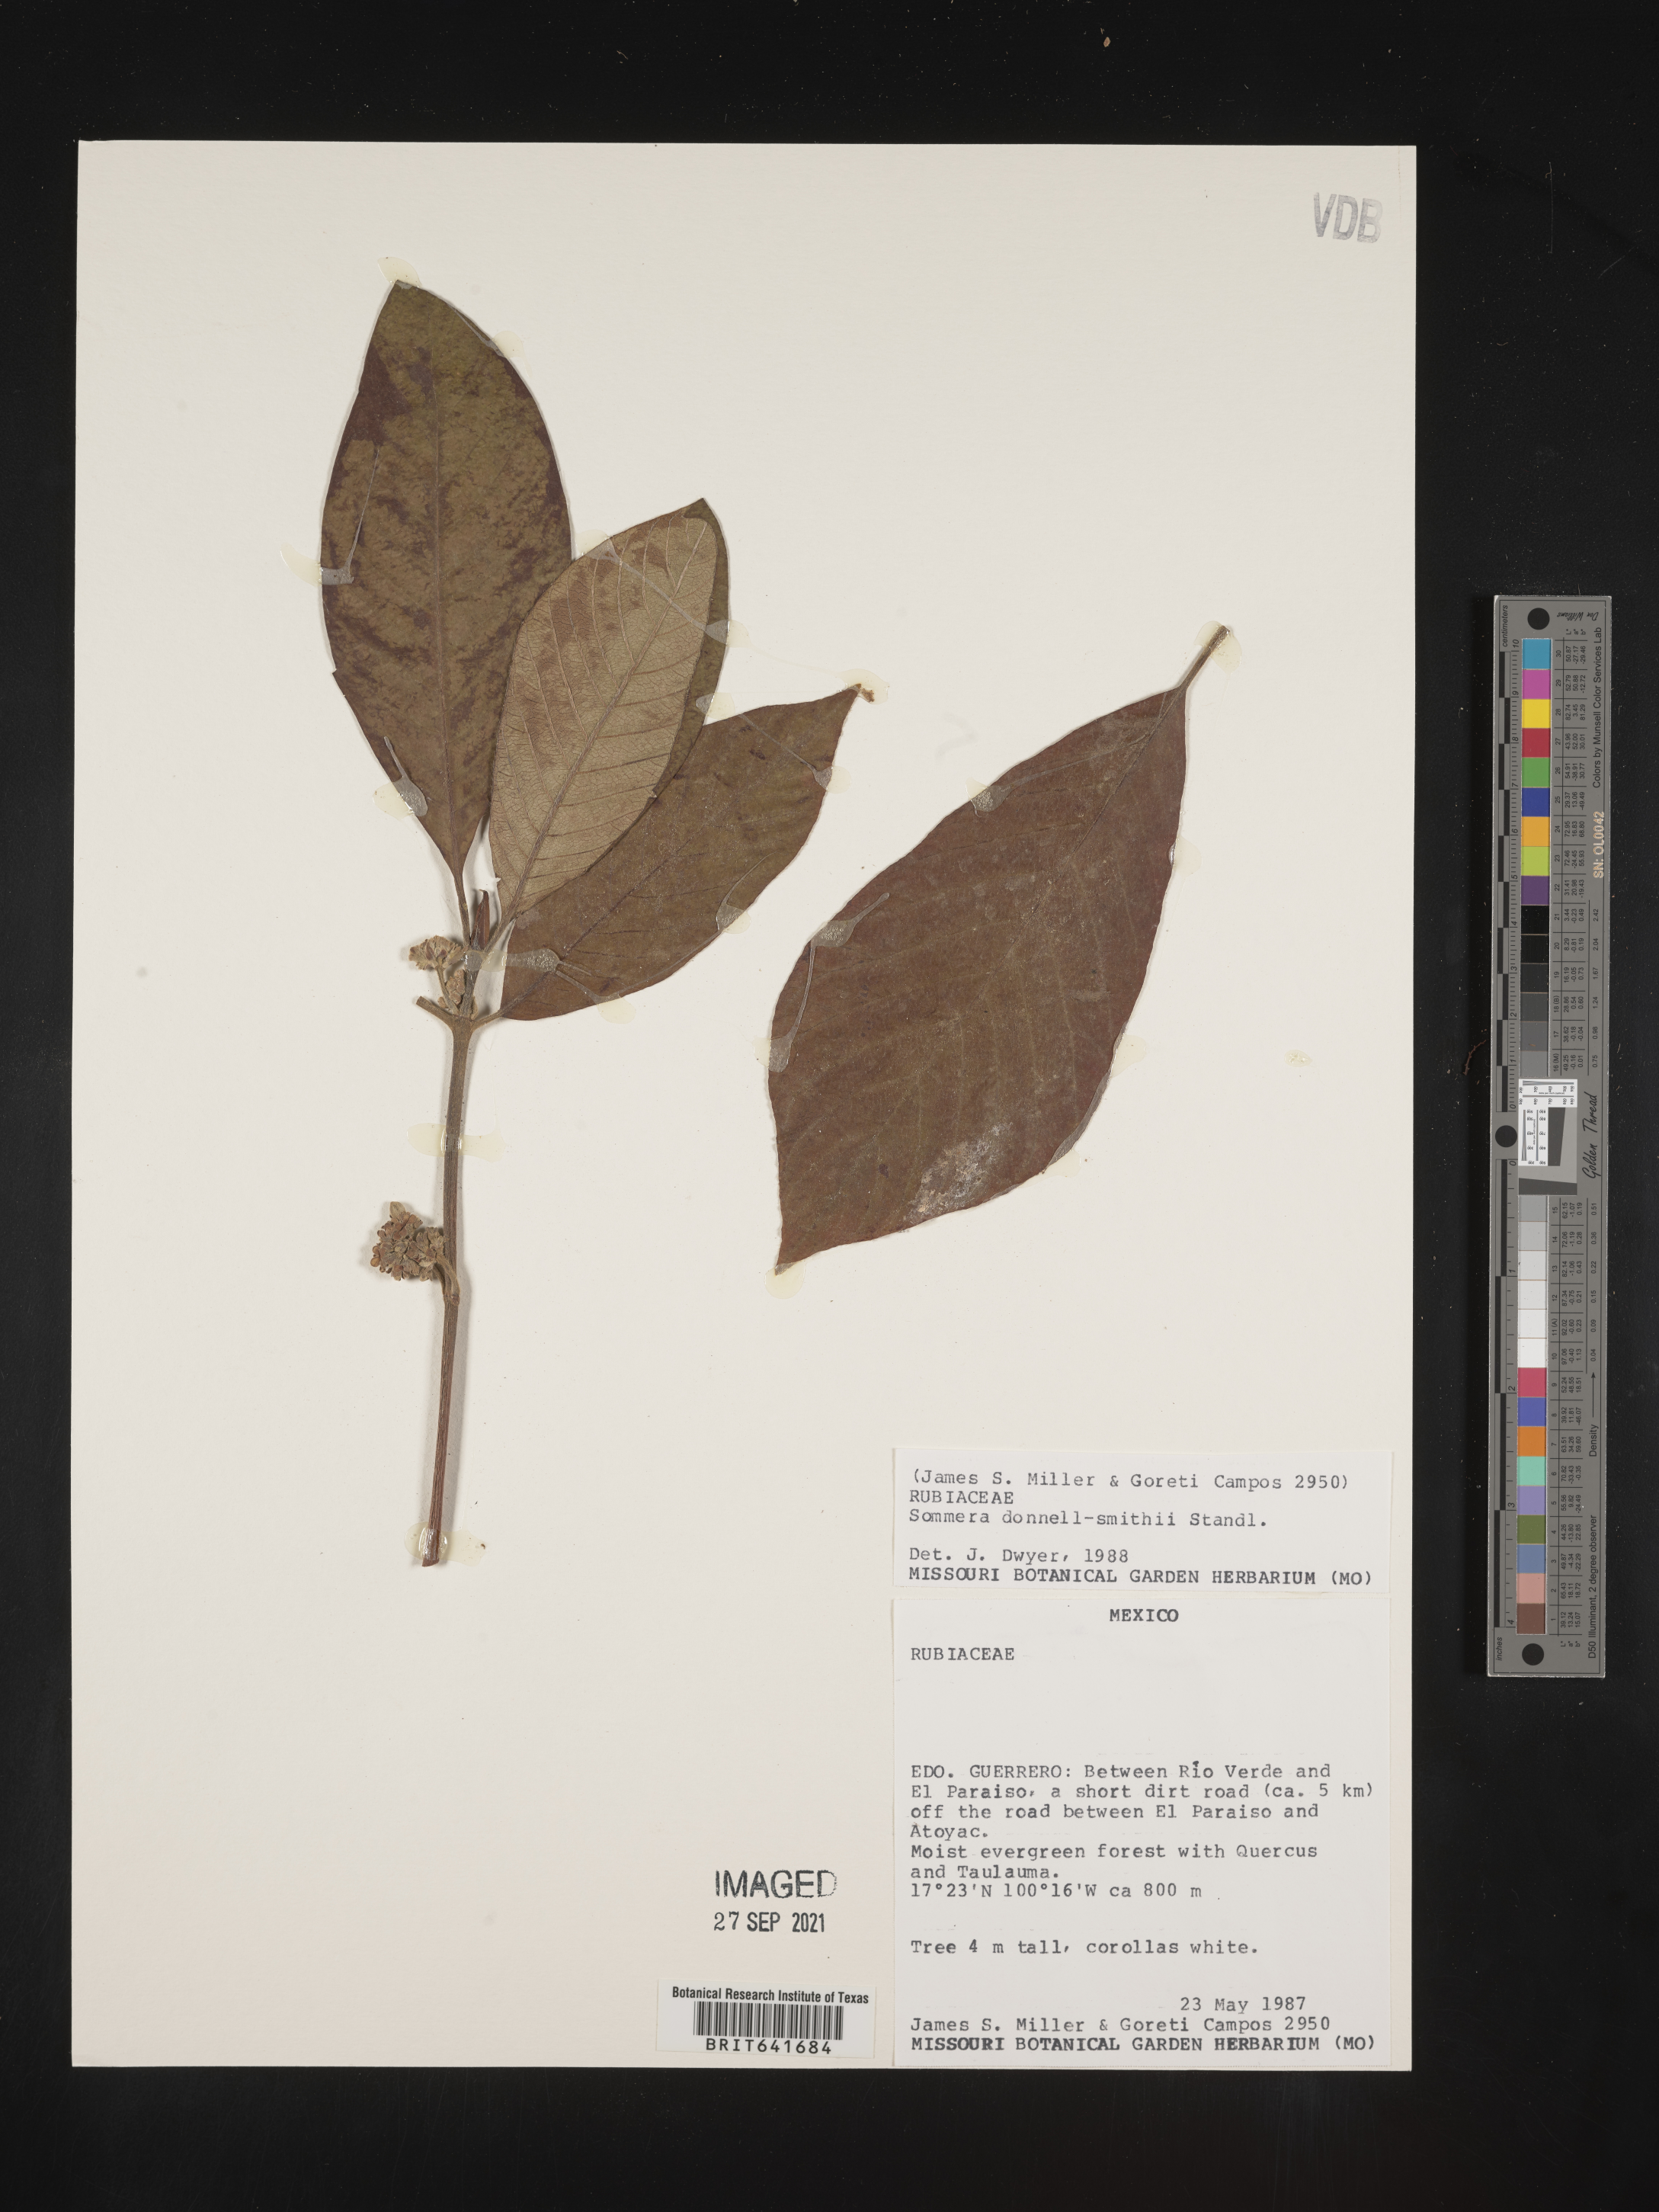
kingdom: Plantae
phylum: Tracheophyta
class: Magnoliopsida
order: Gentianales
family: Rubiaceae
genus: Sommera
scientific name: Sommera
